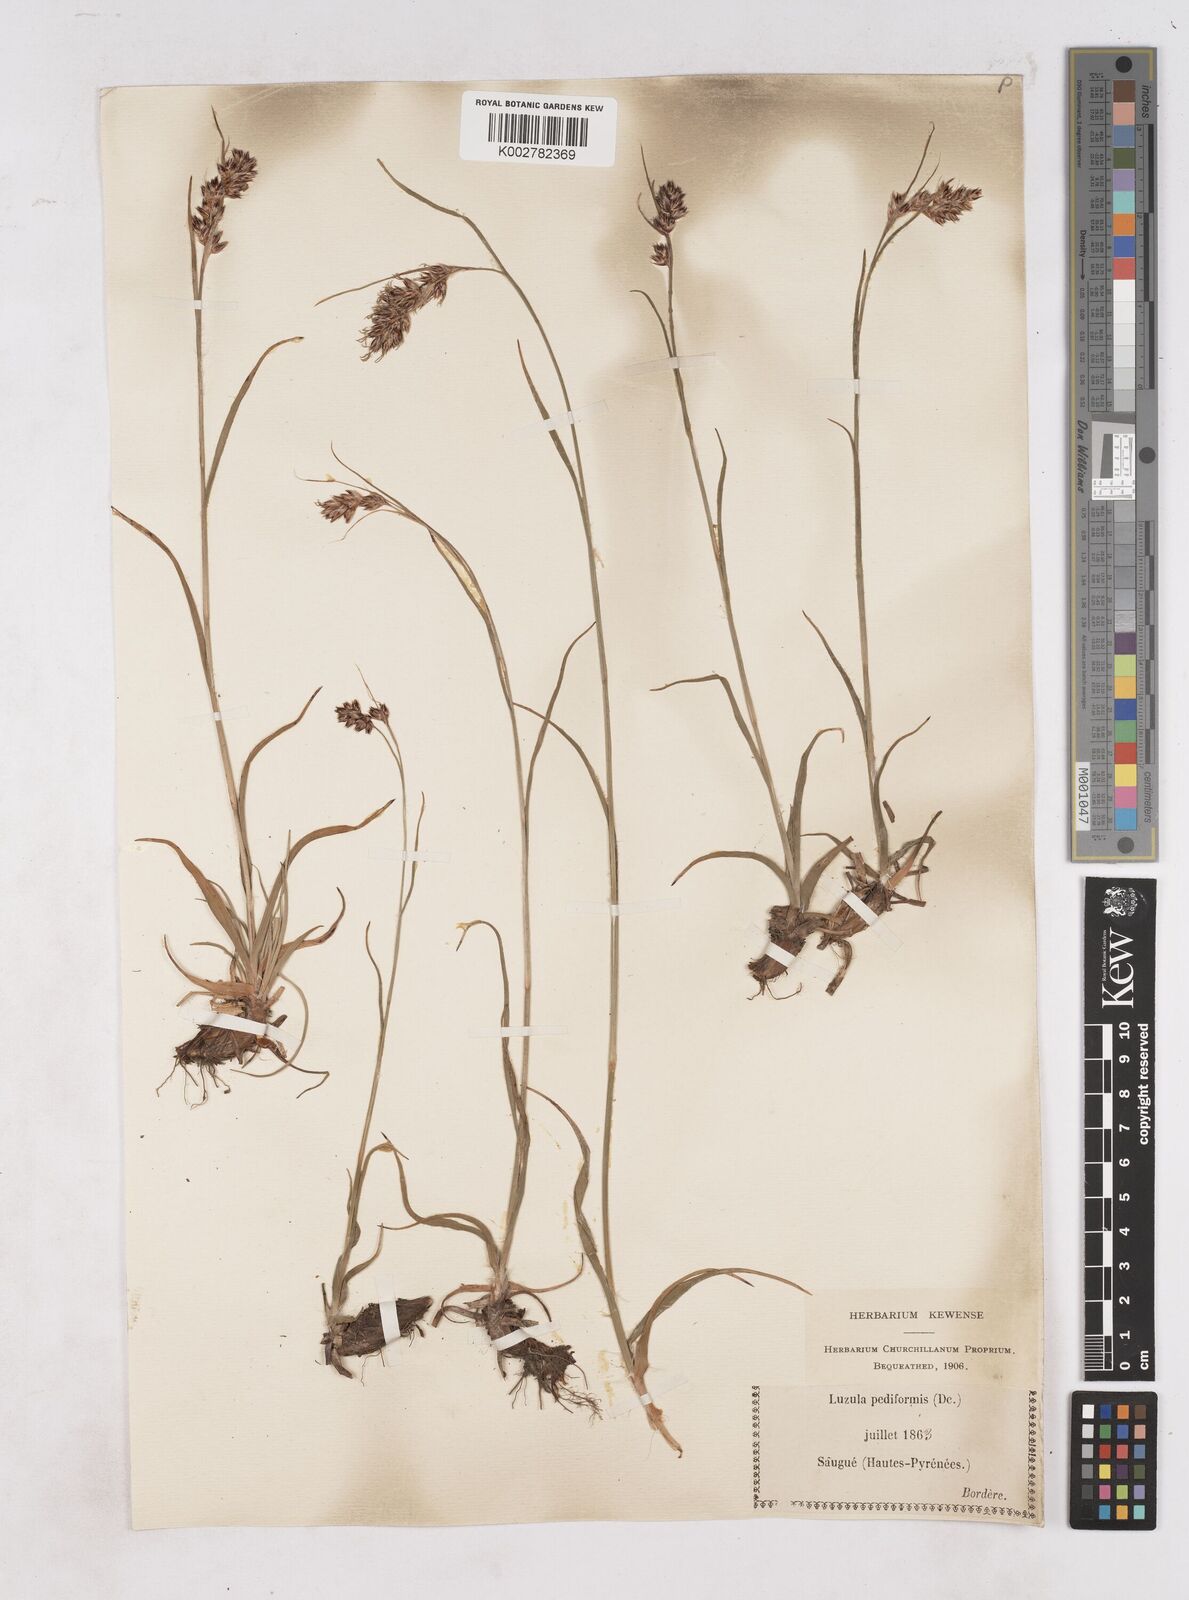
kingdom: Plantae
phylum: Tracheophyta
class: Liliopsida
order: Poales
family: Juncaceae
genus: Luzula
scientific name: Luzula pediformis
